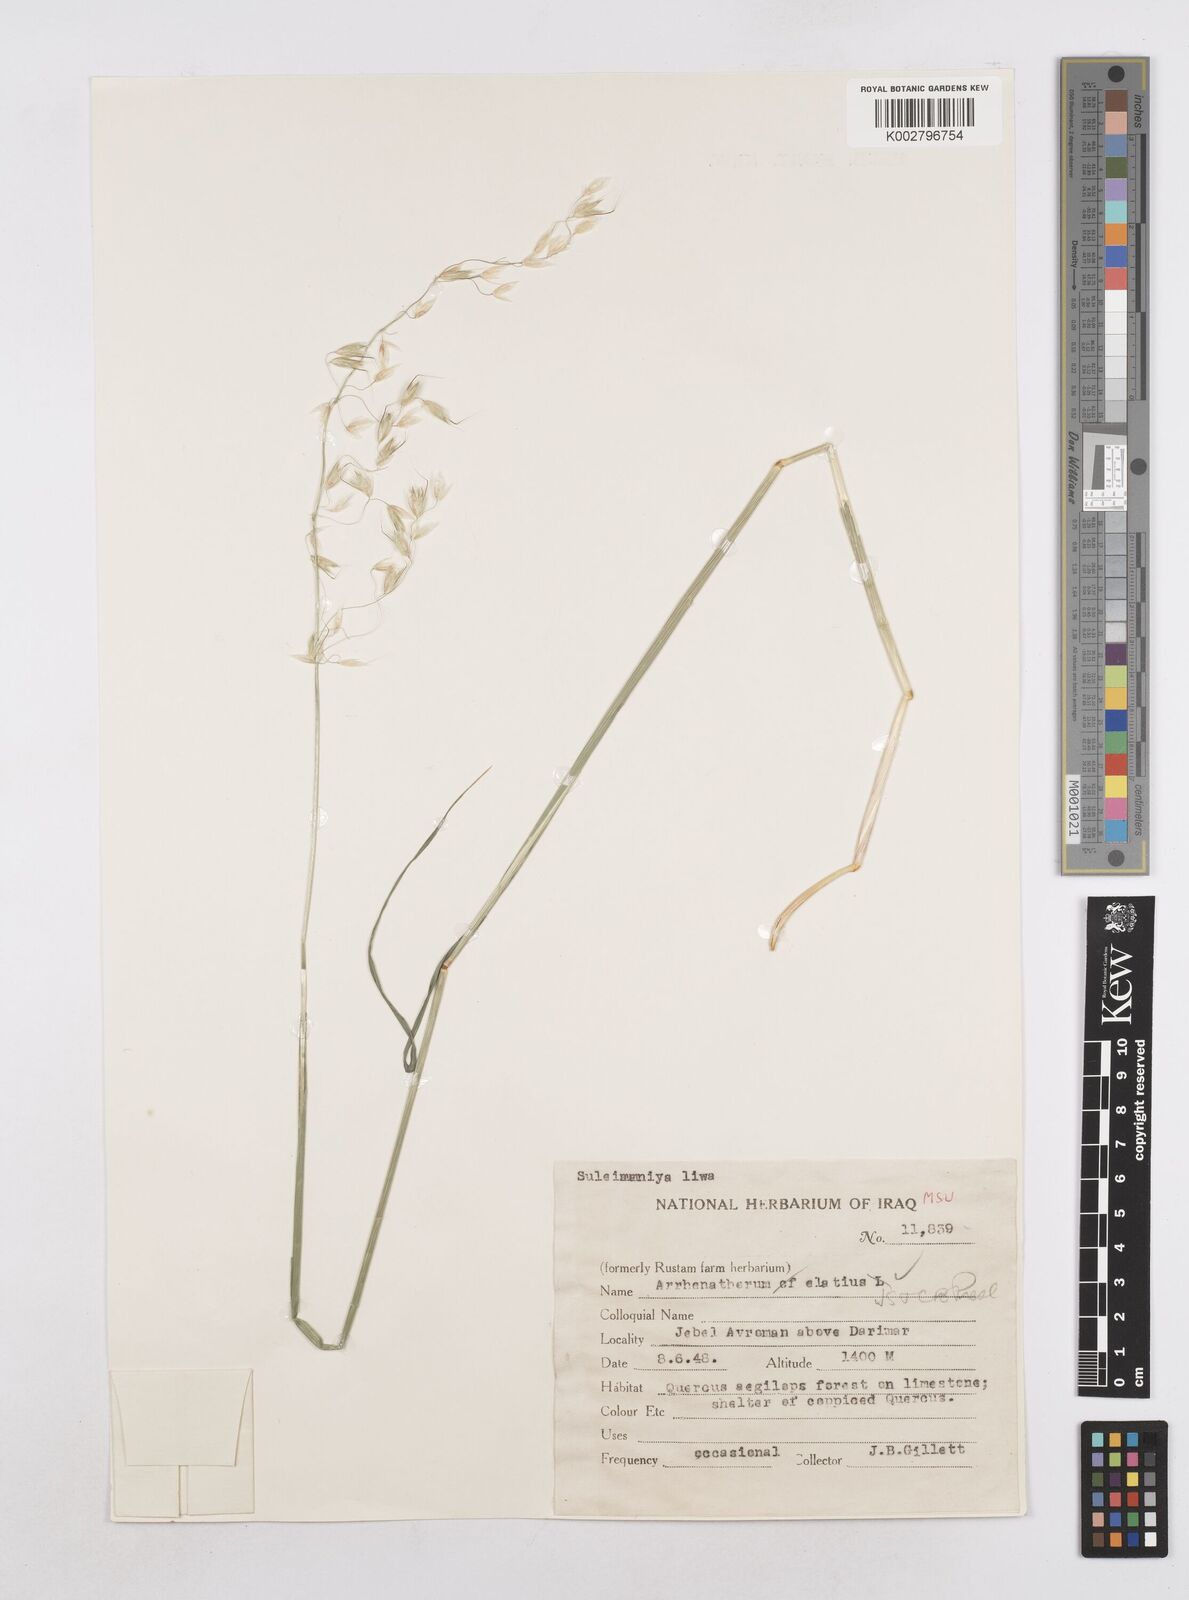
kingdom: Plantae
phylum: Tracheophyta
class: Liliopsida
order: Poales
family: Poaceae
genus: Arrhenatherum
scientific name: Arrhenatherum elatius
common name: Tall oatgrass
